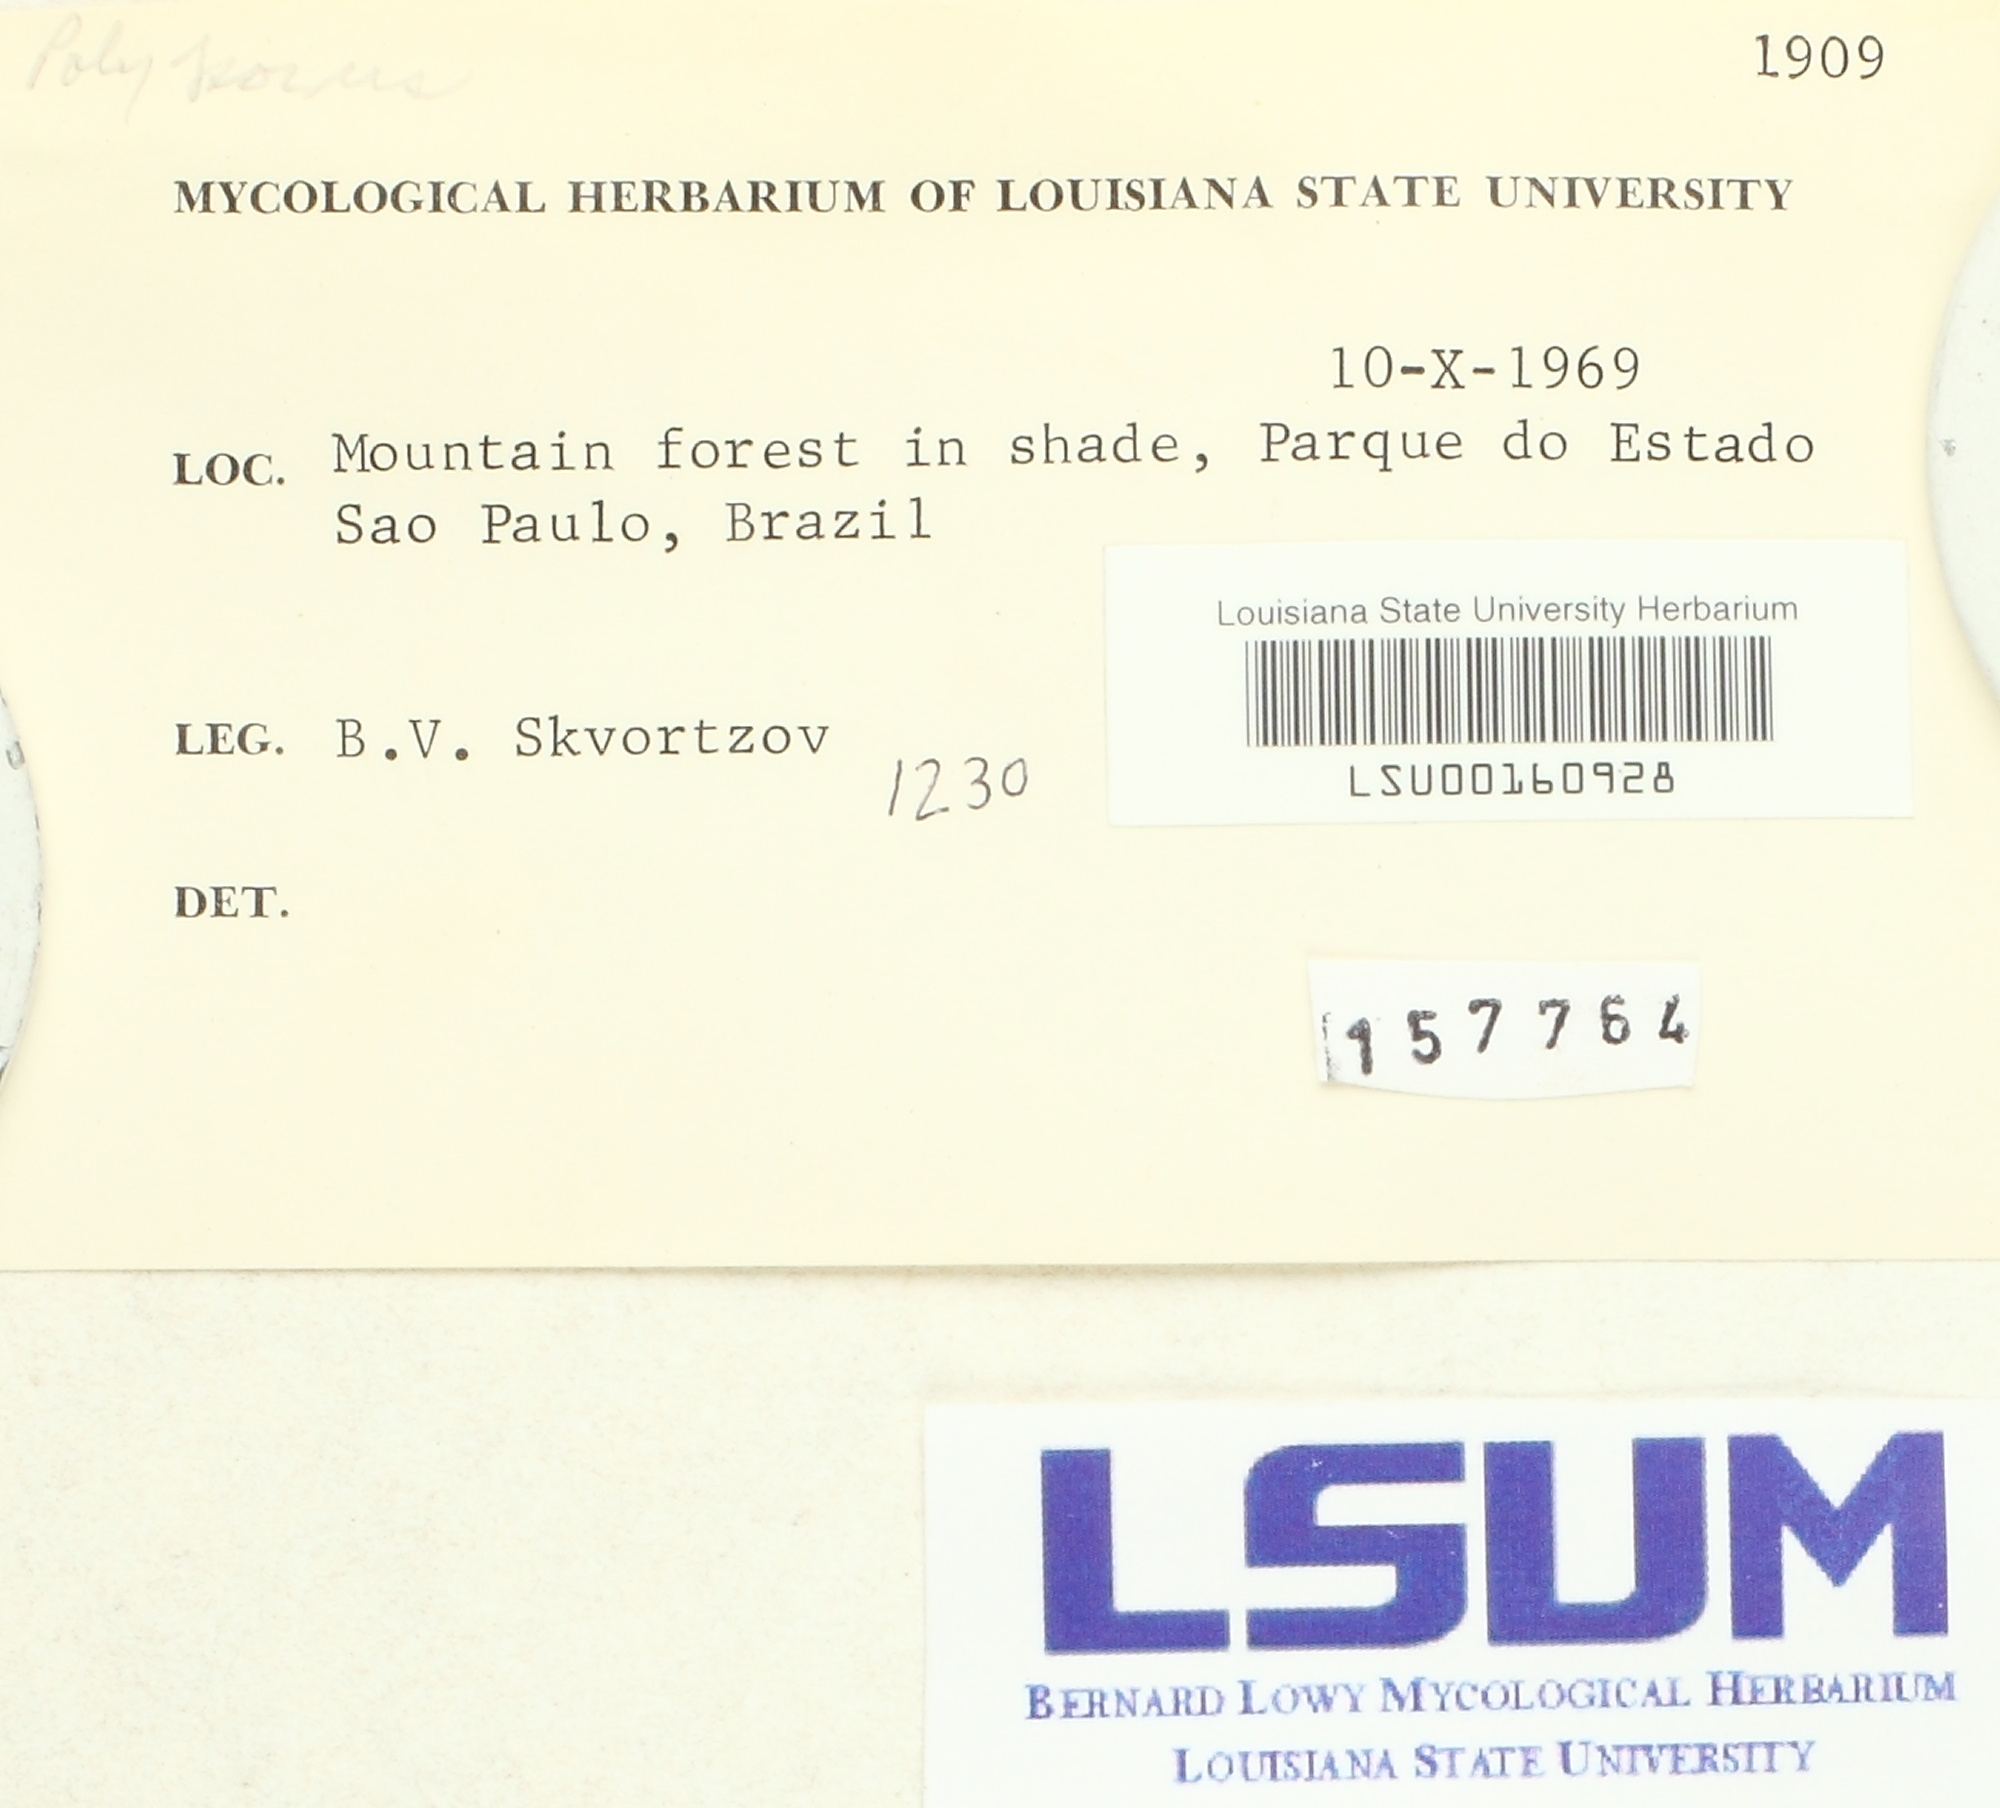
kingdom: Fungi
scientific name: Fungi
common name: Fungi
